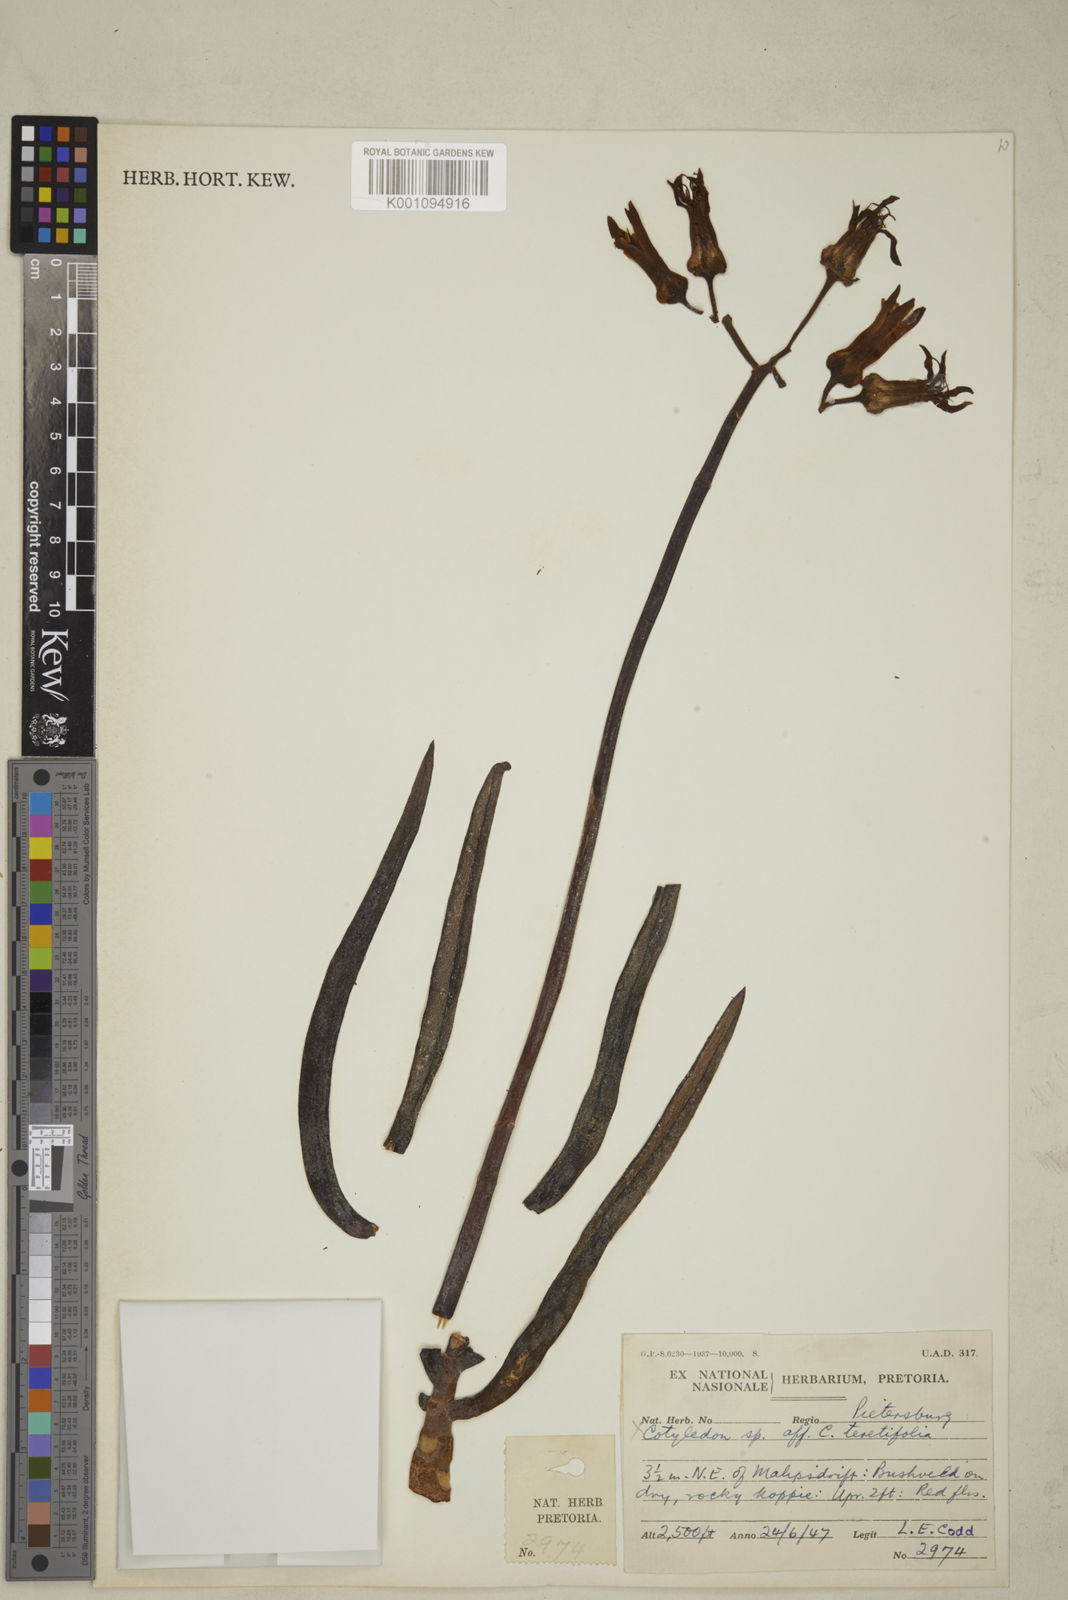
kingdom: Plantae
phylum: Tracheophyta
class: Magnoliopsida
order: Saxifragales
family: Crassulaceae
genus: Cotyledon
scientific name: Cotyledon campanulata
